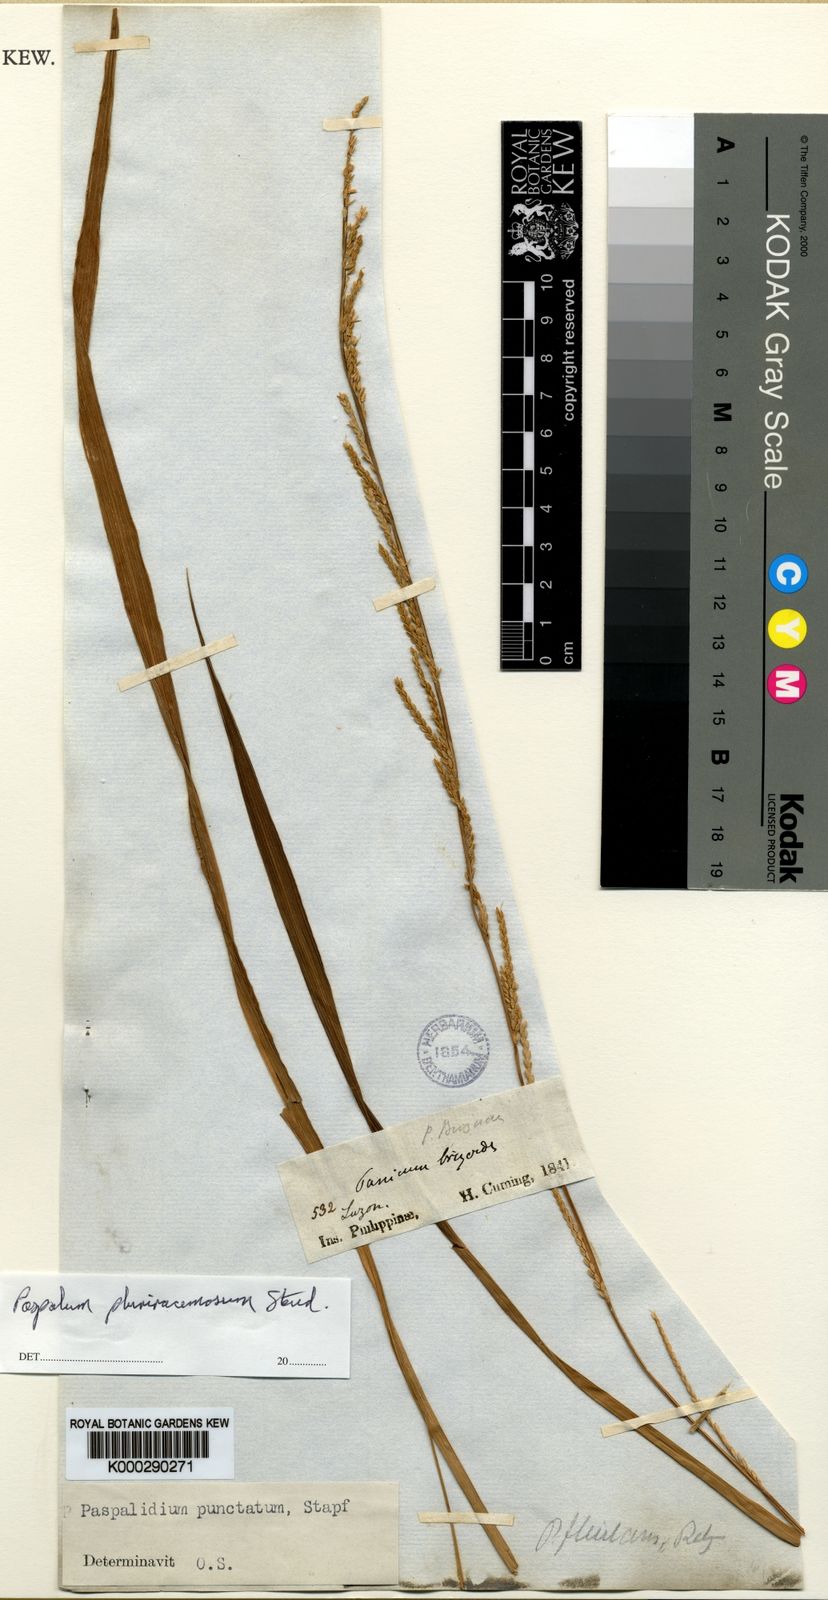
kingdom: Plantae
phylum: Tracheophyta
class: Liliopsida
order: Poales
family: Poaceae
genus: Setaria
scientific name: Setaria
